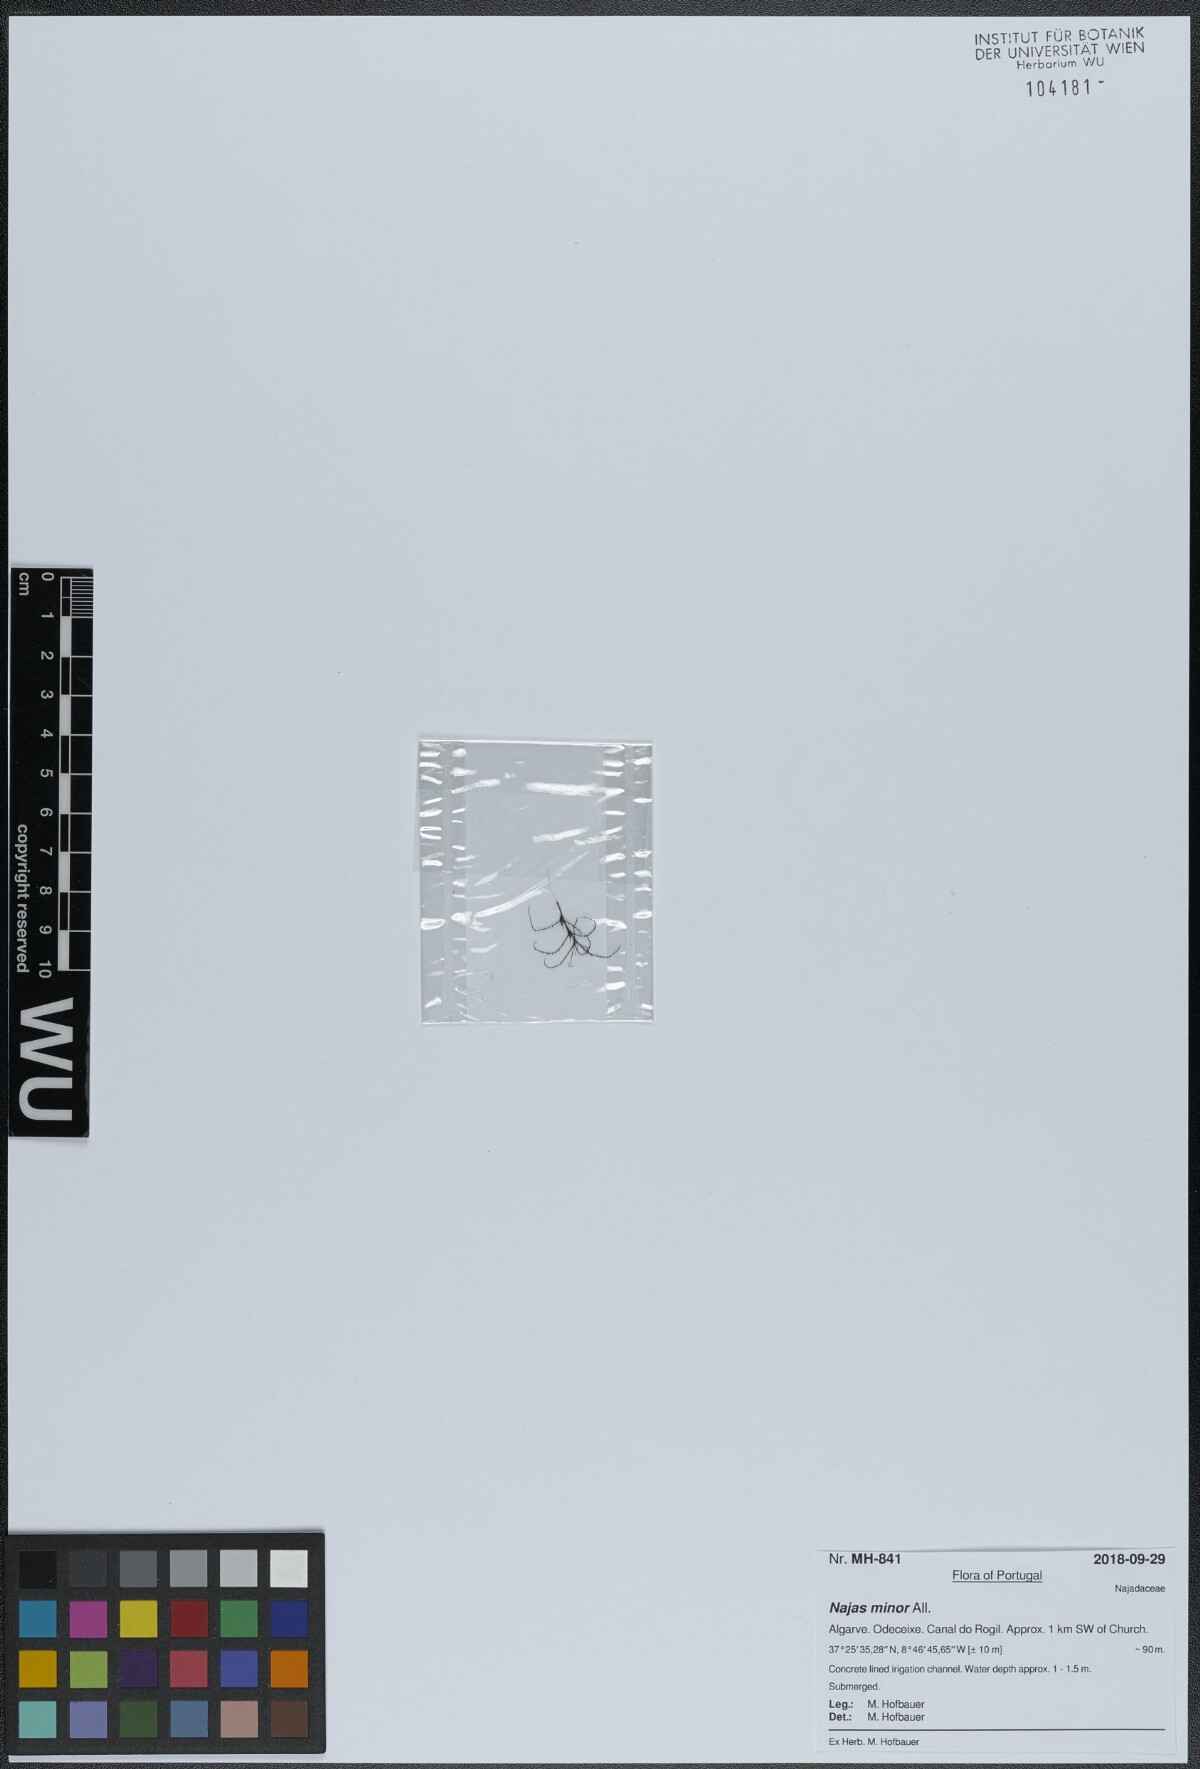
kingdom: Plantae
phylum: Tracheophyta
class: Liliopsida
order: Alismatales
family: Hydrocharitaceae
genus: Najas
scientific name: Najas minor
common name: Brittle naiad
